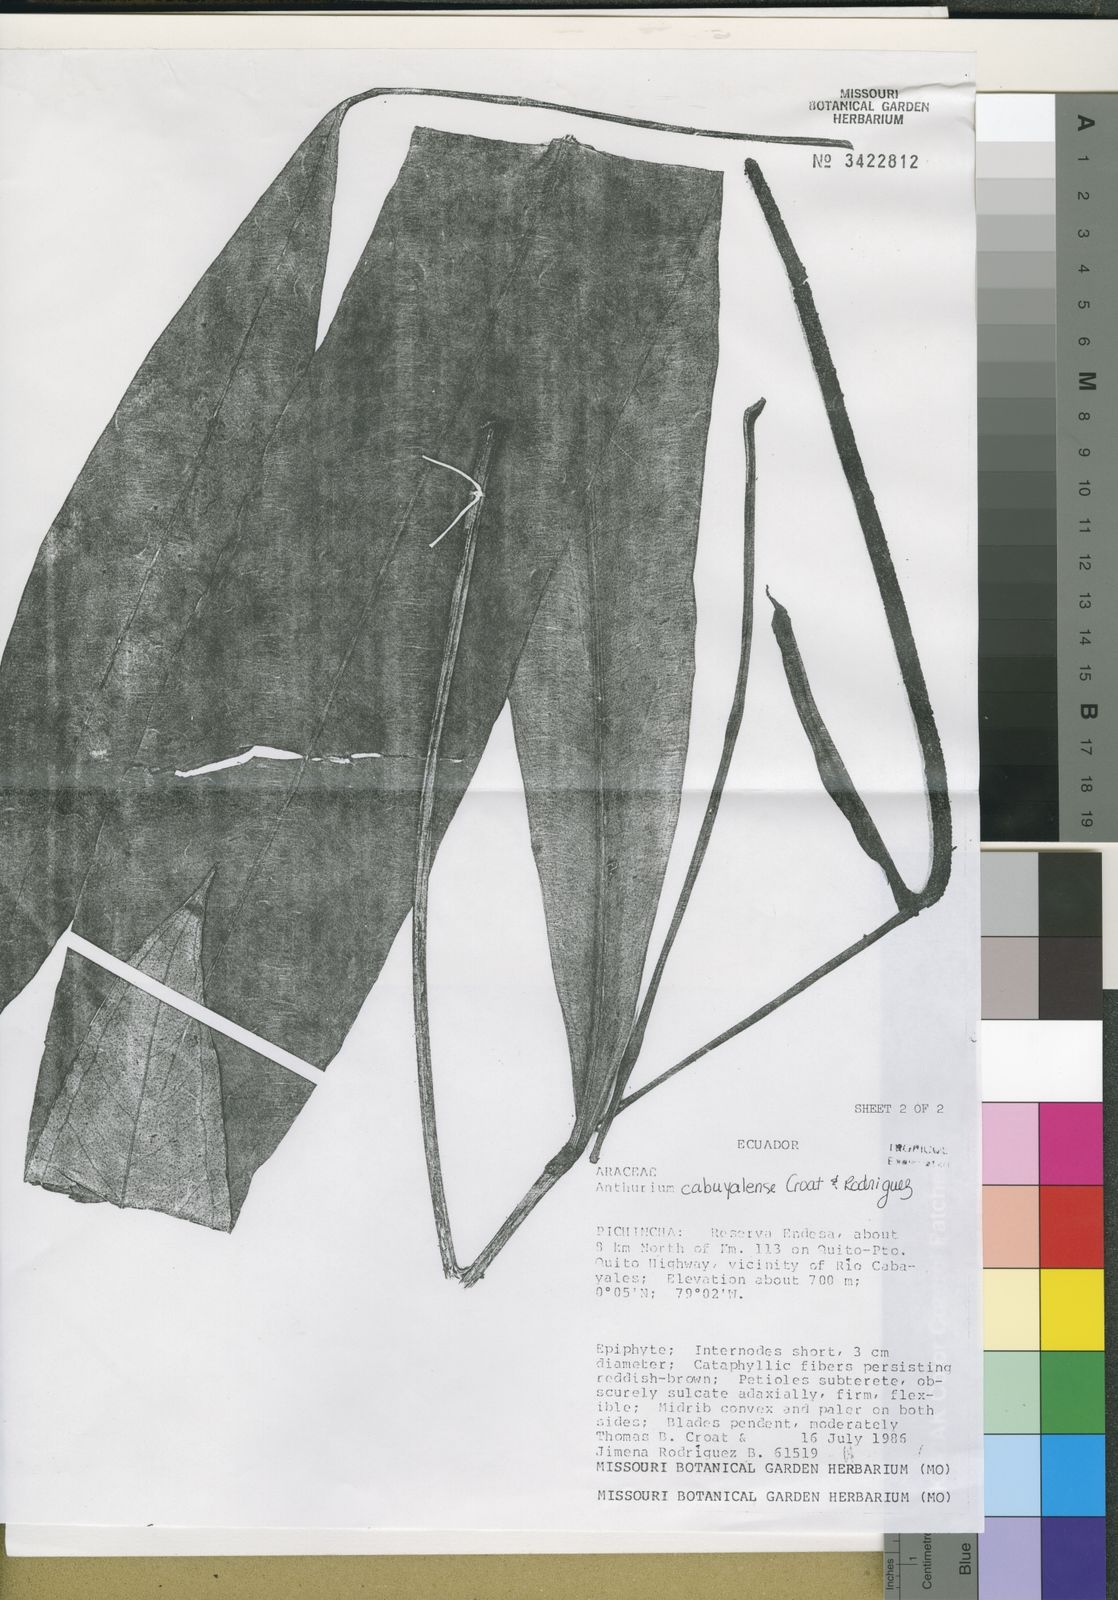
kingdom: Plantae
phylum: Tracheophyta
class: Liliopsida
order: Alismatales
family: Araceae
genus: Anthurium
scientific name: Anthurium cabuyalense
